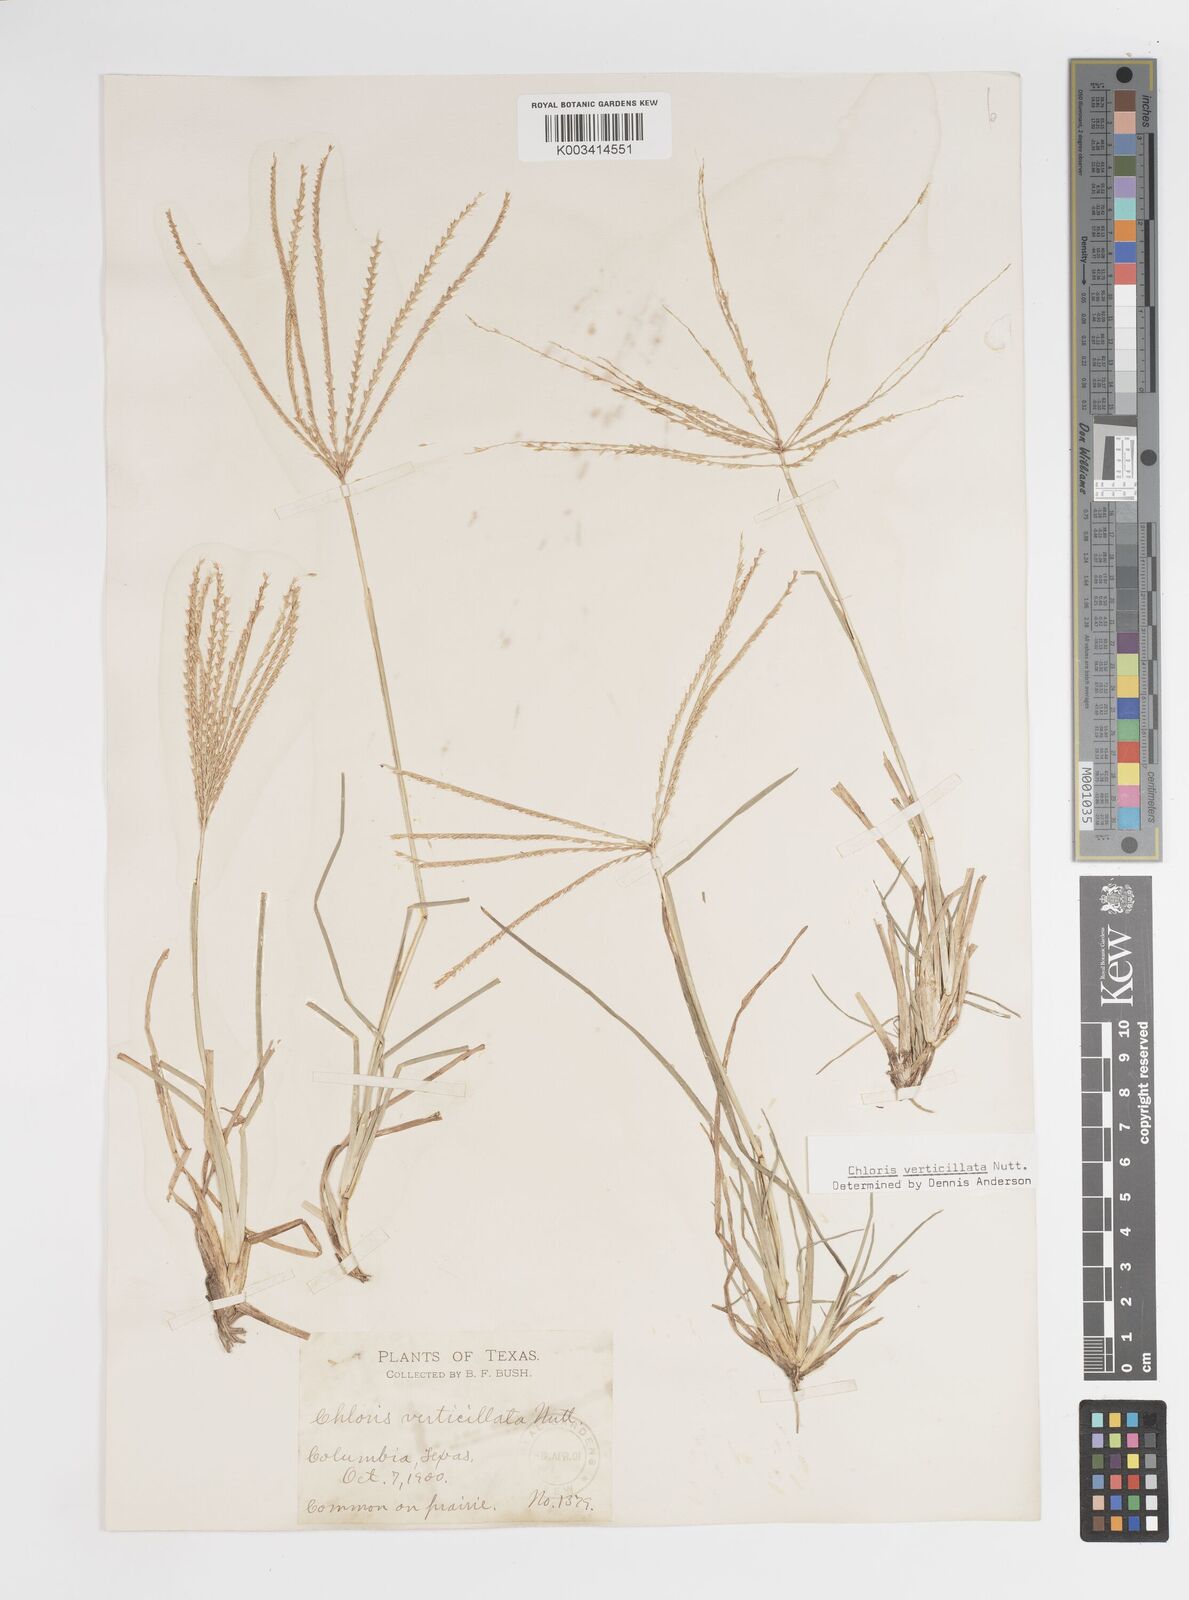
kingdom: Plantae
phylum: Tracheophyta
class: Liliopsida
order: Poales
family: Poaceae
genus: Chloris
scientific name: Chloris verticillata
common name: Tumble windmill grass
